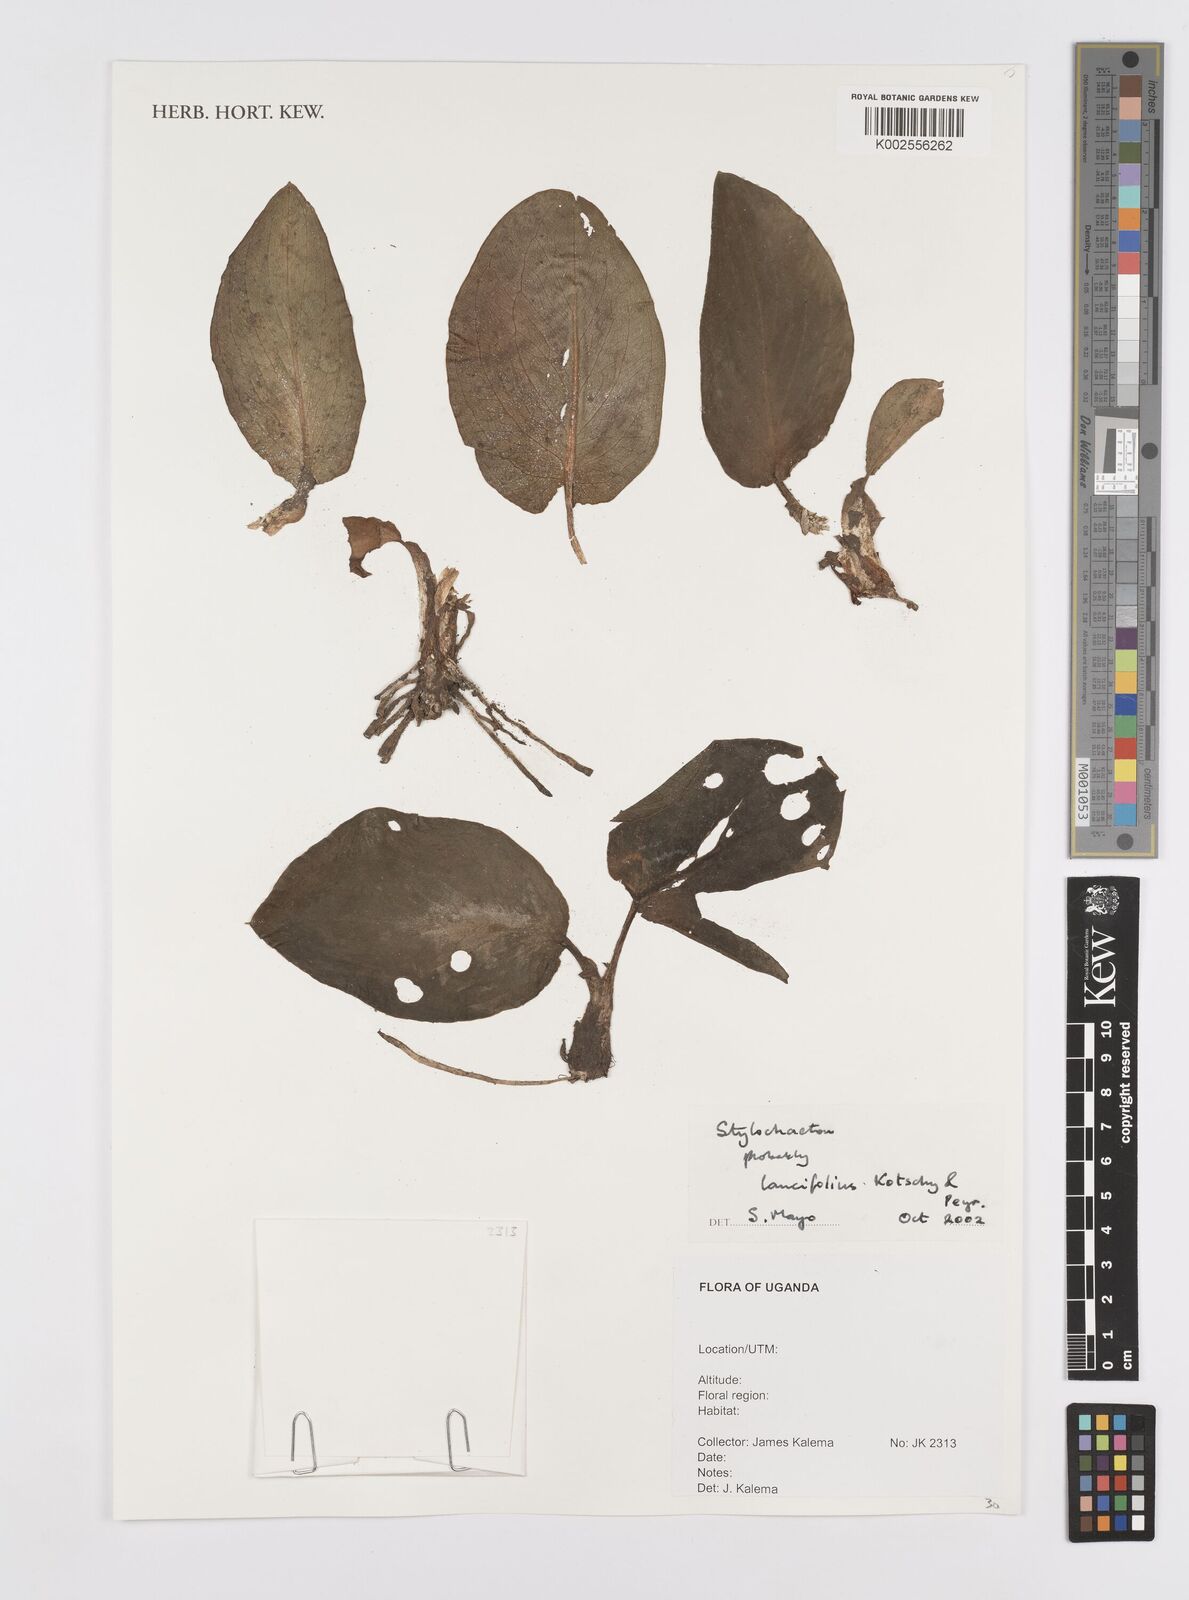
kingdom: Plantae
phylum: Tracheophyta
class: Liliopsida
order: Alismatales
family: Araceae
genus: Stylochaeton
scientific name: Stylochaeton lancifolium
